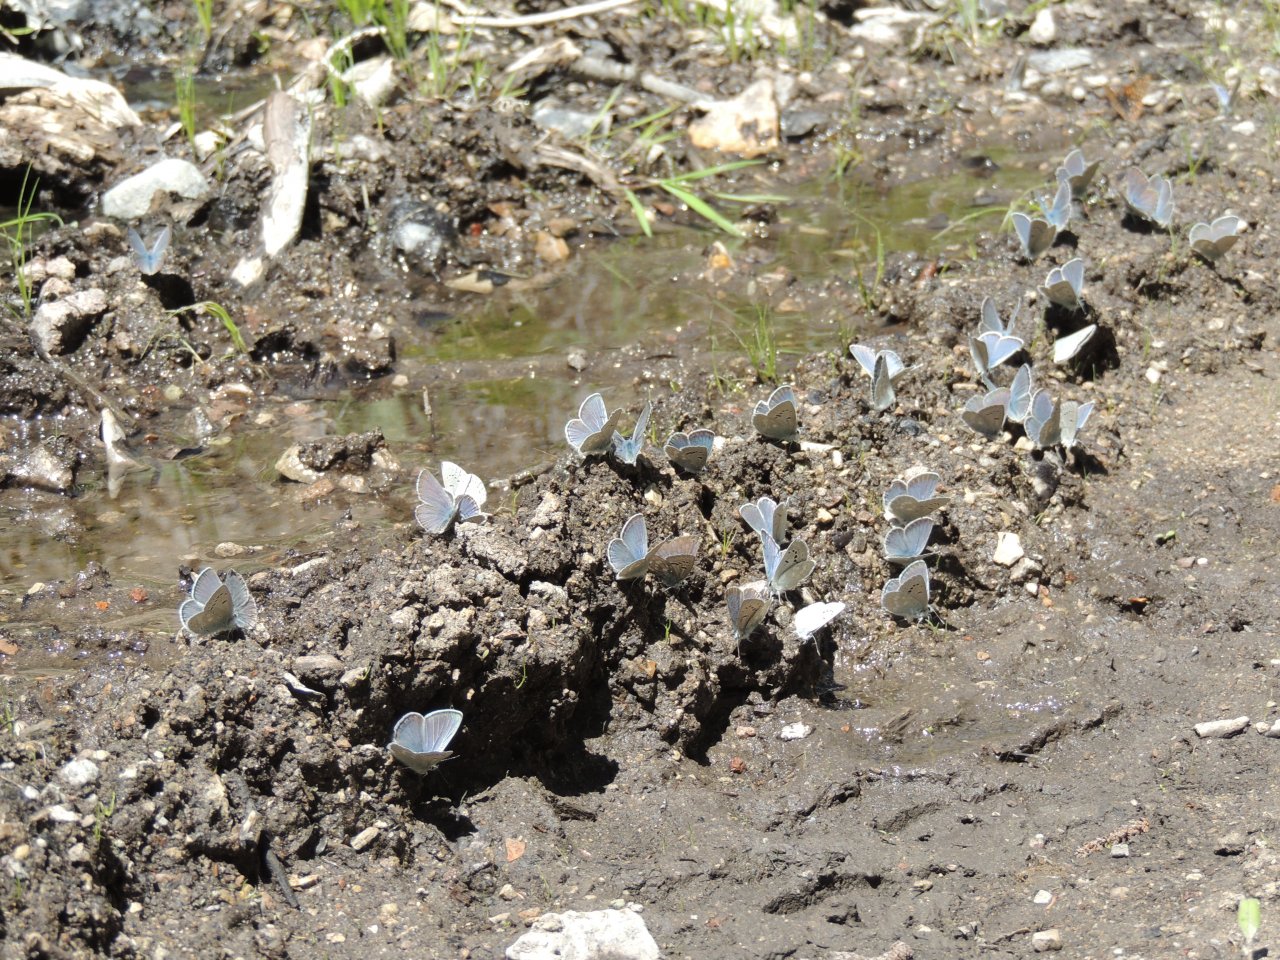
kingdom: Animalia
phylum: Arthropoda
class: Insecta
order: Lepidoptera
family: Lycaenidae
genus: Icaricia
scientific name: Icaricia icarioides
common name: Boisduval's Blue
